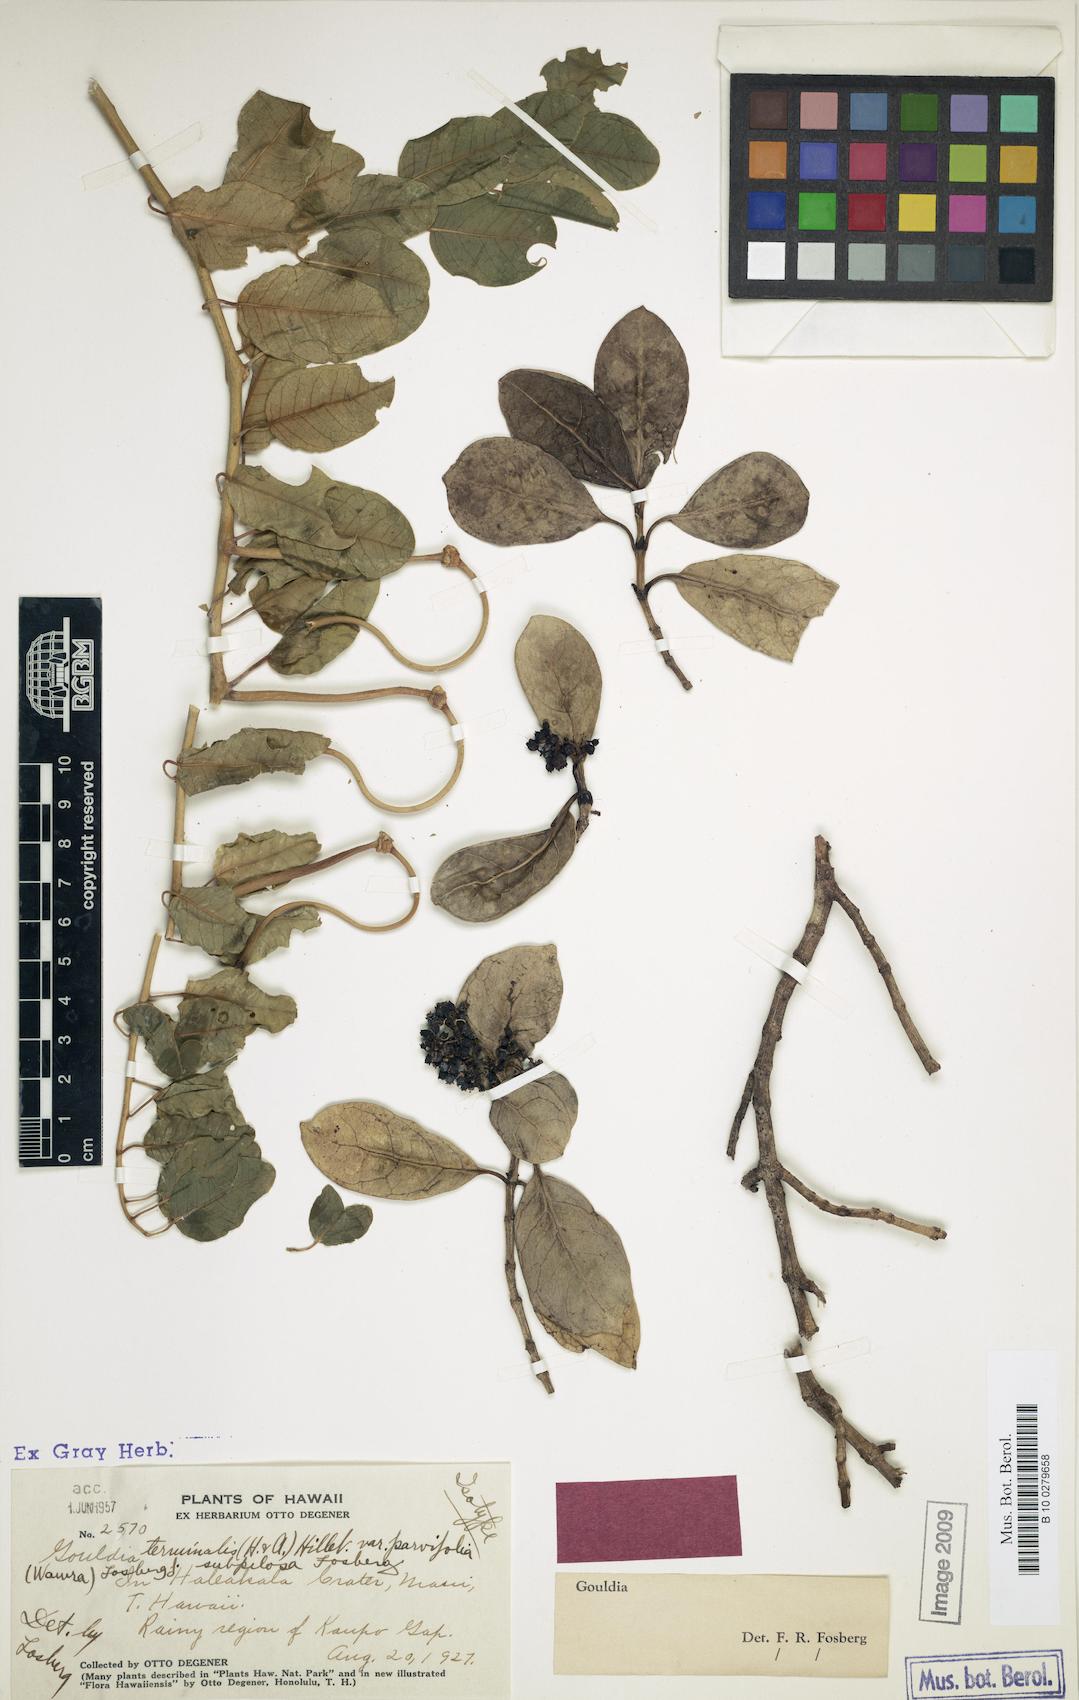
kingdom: Plantae
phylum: Tracheophyta
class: Magnoliopsida
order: Gentianales
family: Rubiaceae
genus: Kadua
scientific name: Kadua affinis
